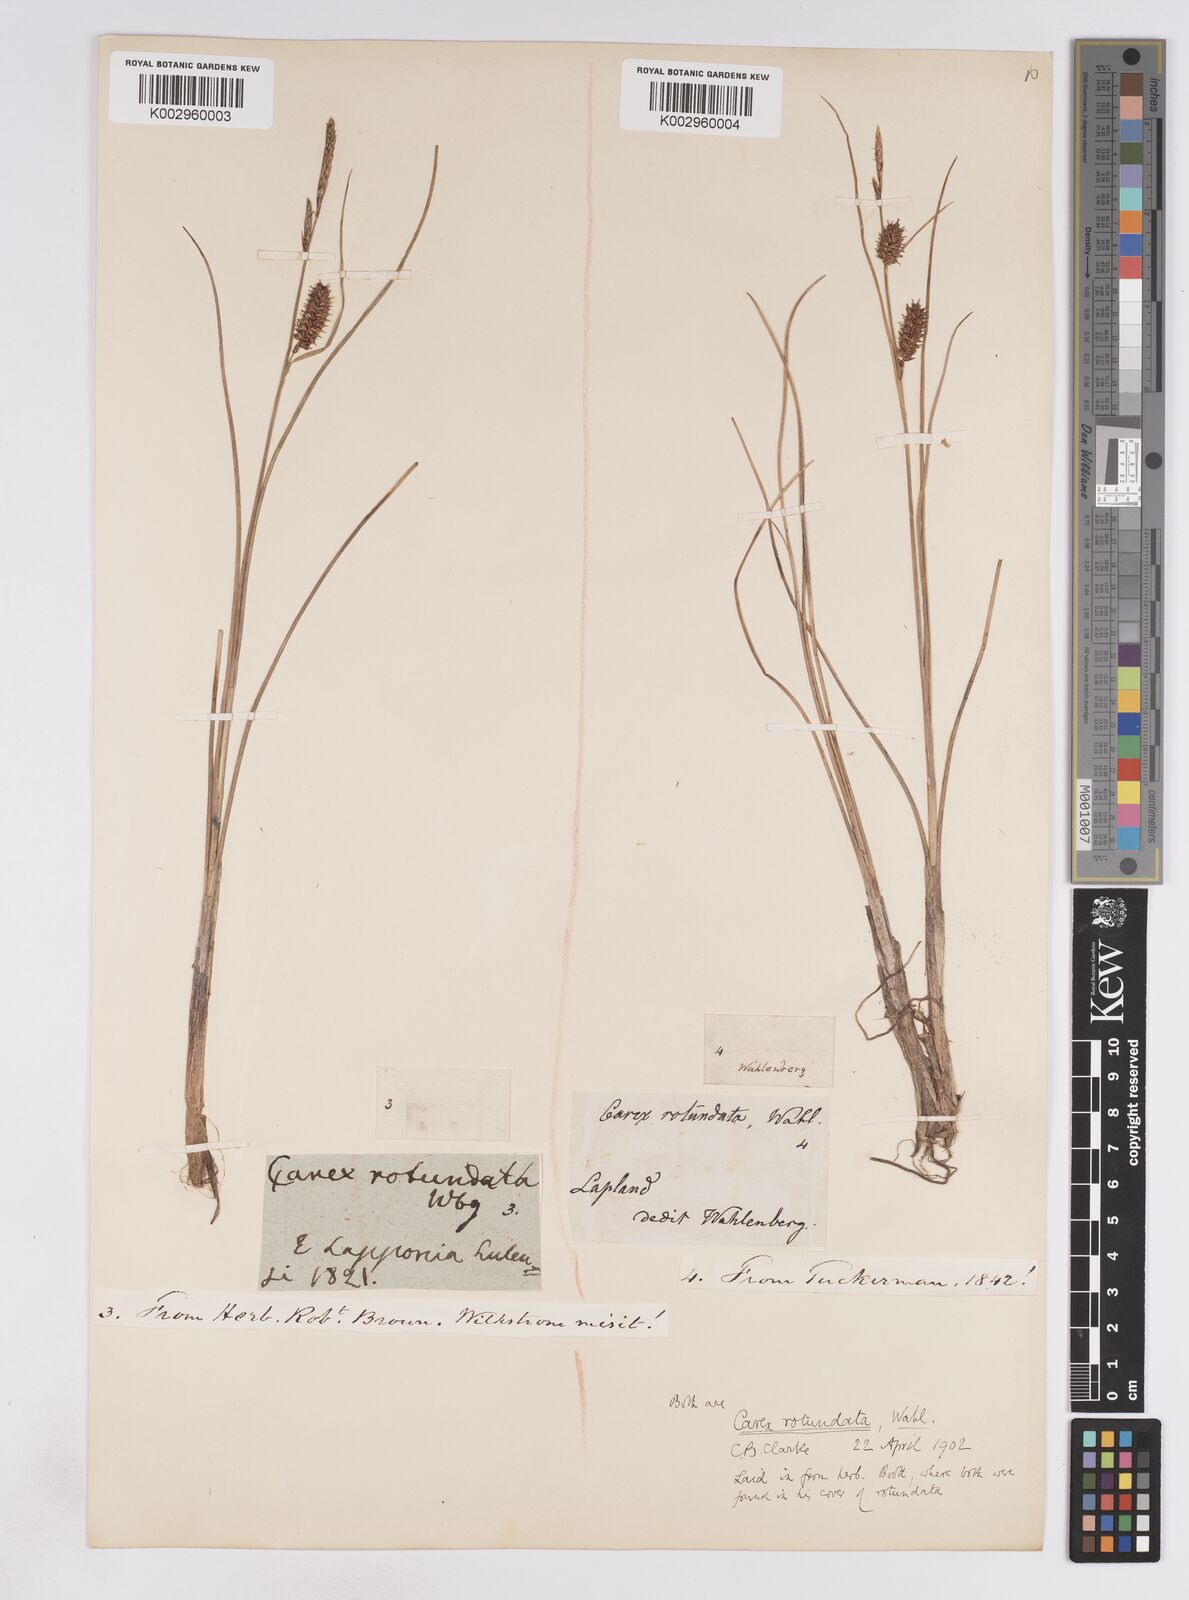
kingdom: Plantae
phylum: Tracheophyta
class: Liliopsida
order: Poales
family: Cyperaceae
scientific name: Cyperaceae
